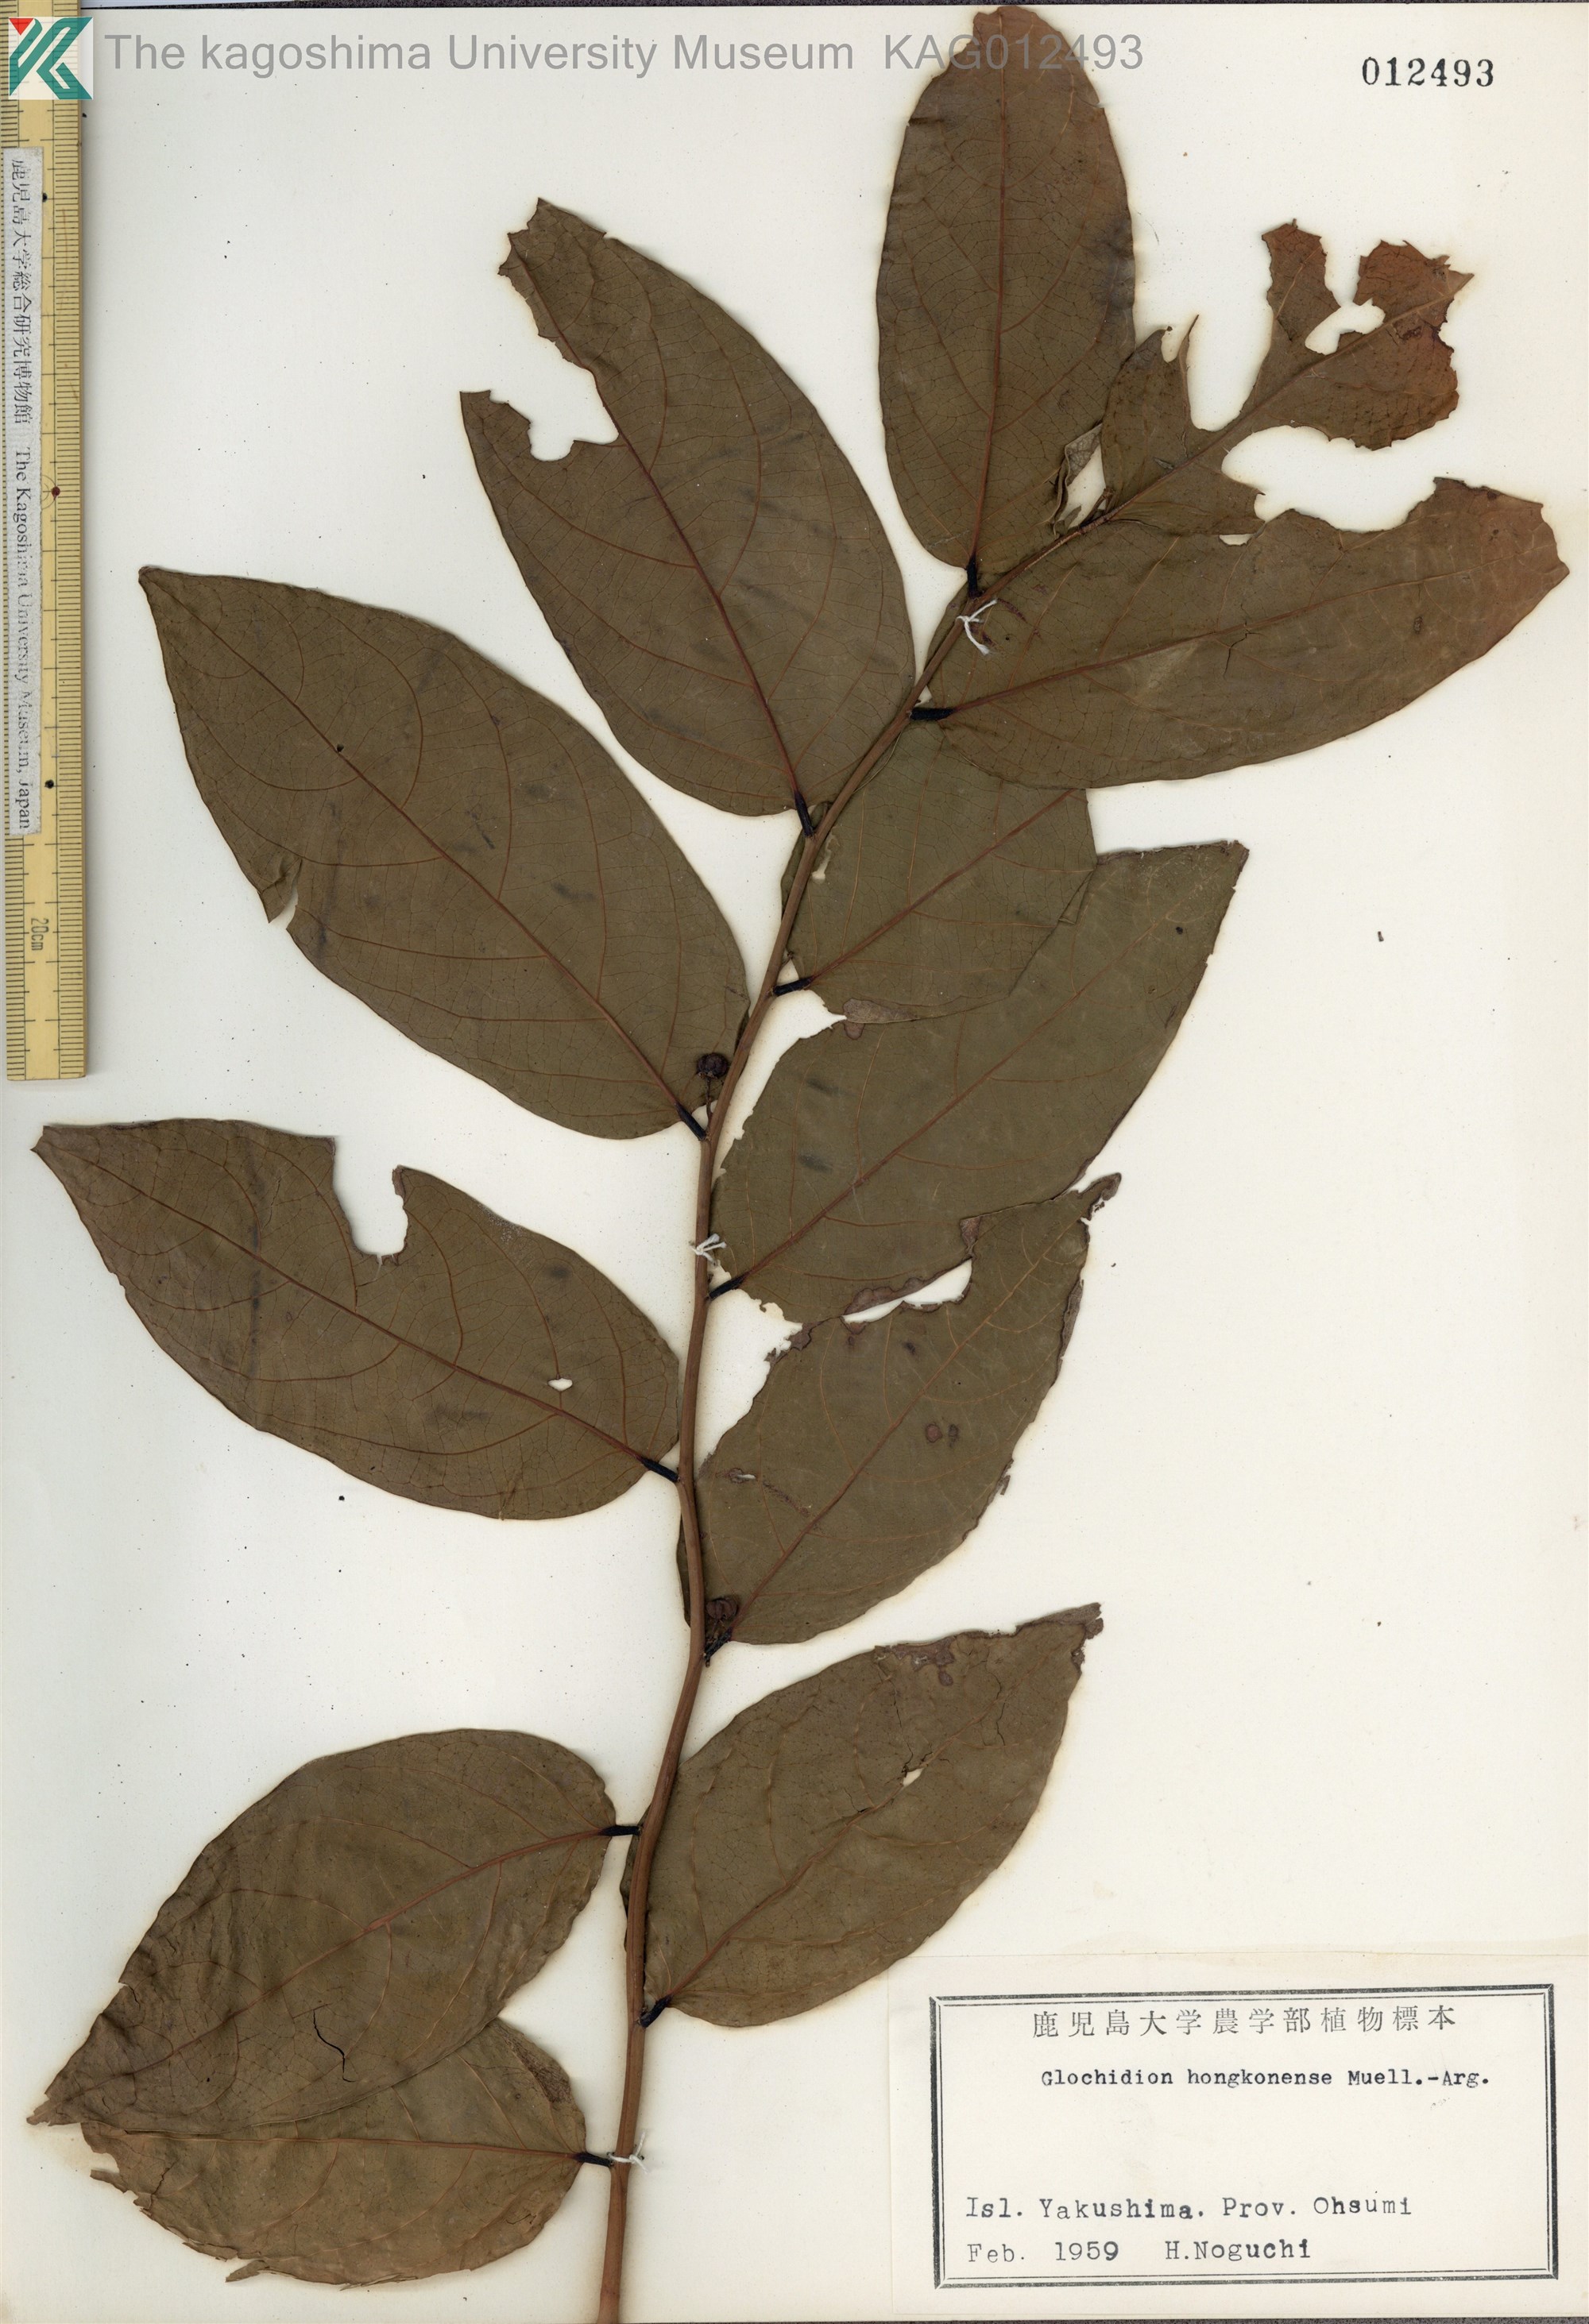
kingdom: Plantae
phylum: Tracheophyta
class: Magnoliopsida
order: Malpighiales
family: Phyllanthaceae
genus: Glochidion
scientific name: Glochidion zeylanicum
